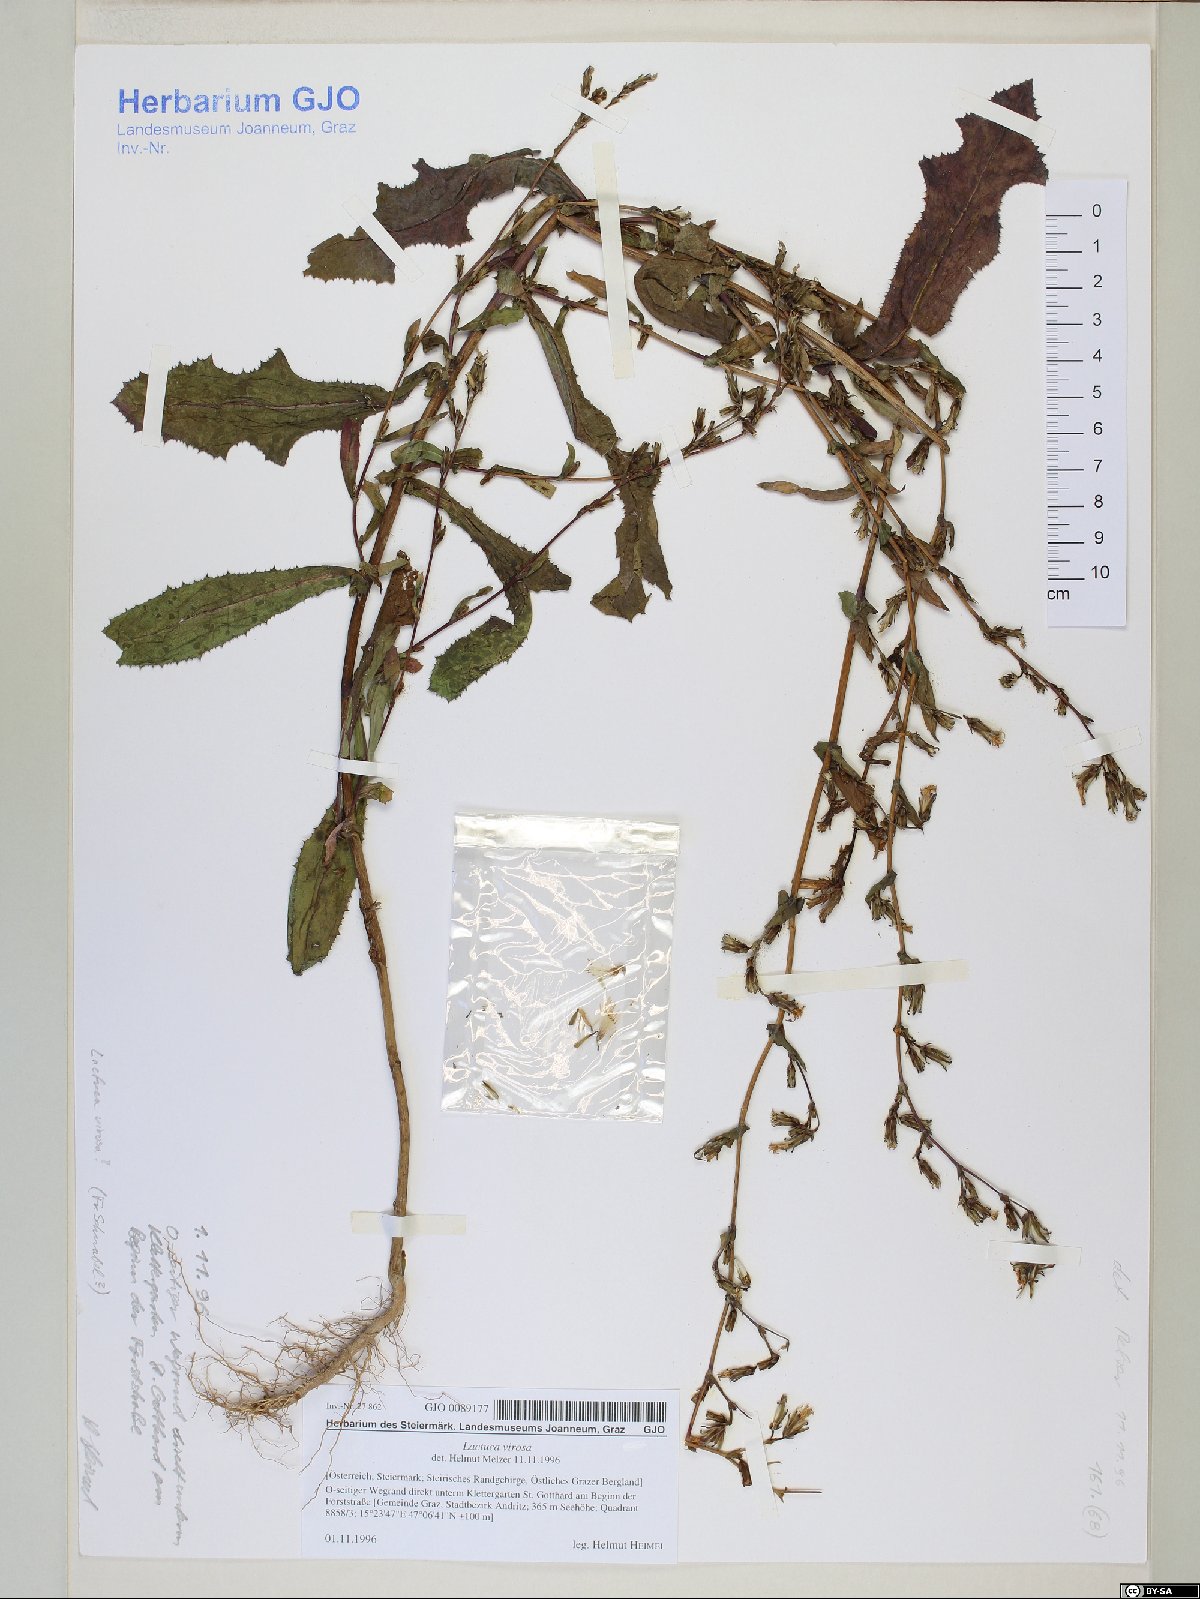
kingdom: Plantae
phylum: Tracheophyta
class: Magnoliopsida
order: Asterales
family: Asteraceae
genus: Lactuca
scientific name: Lactuca virosa
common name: Great lettuce
